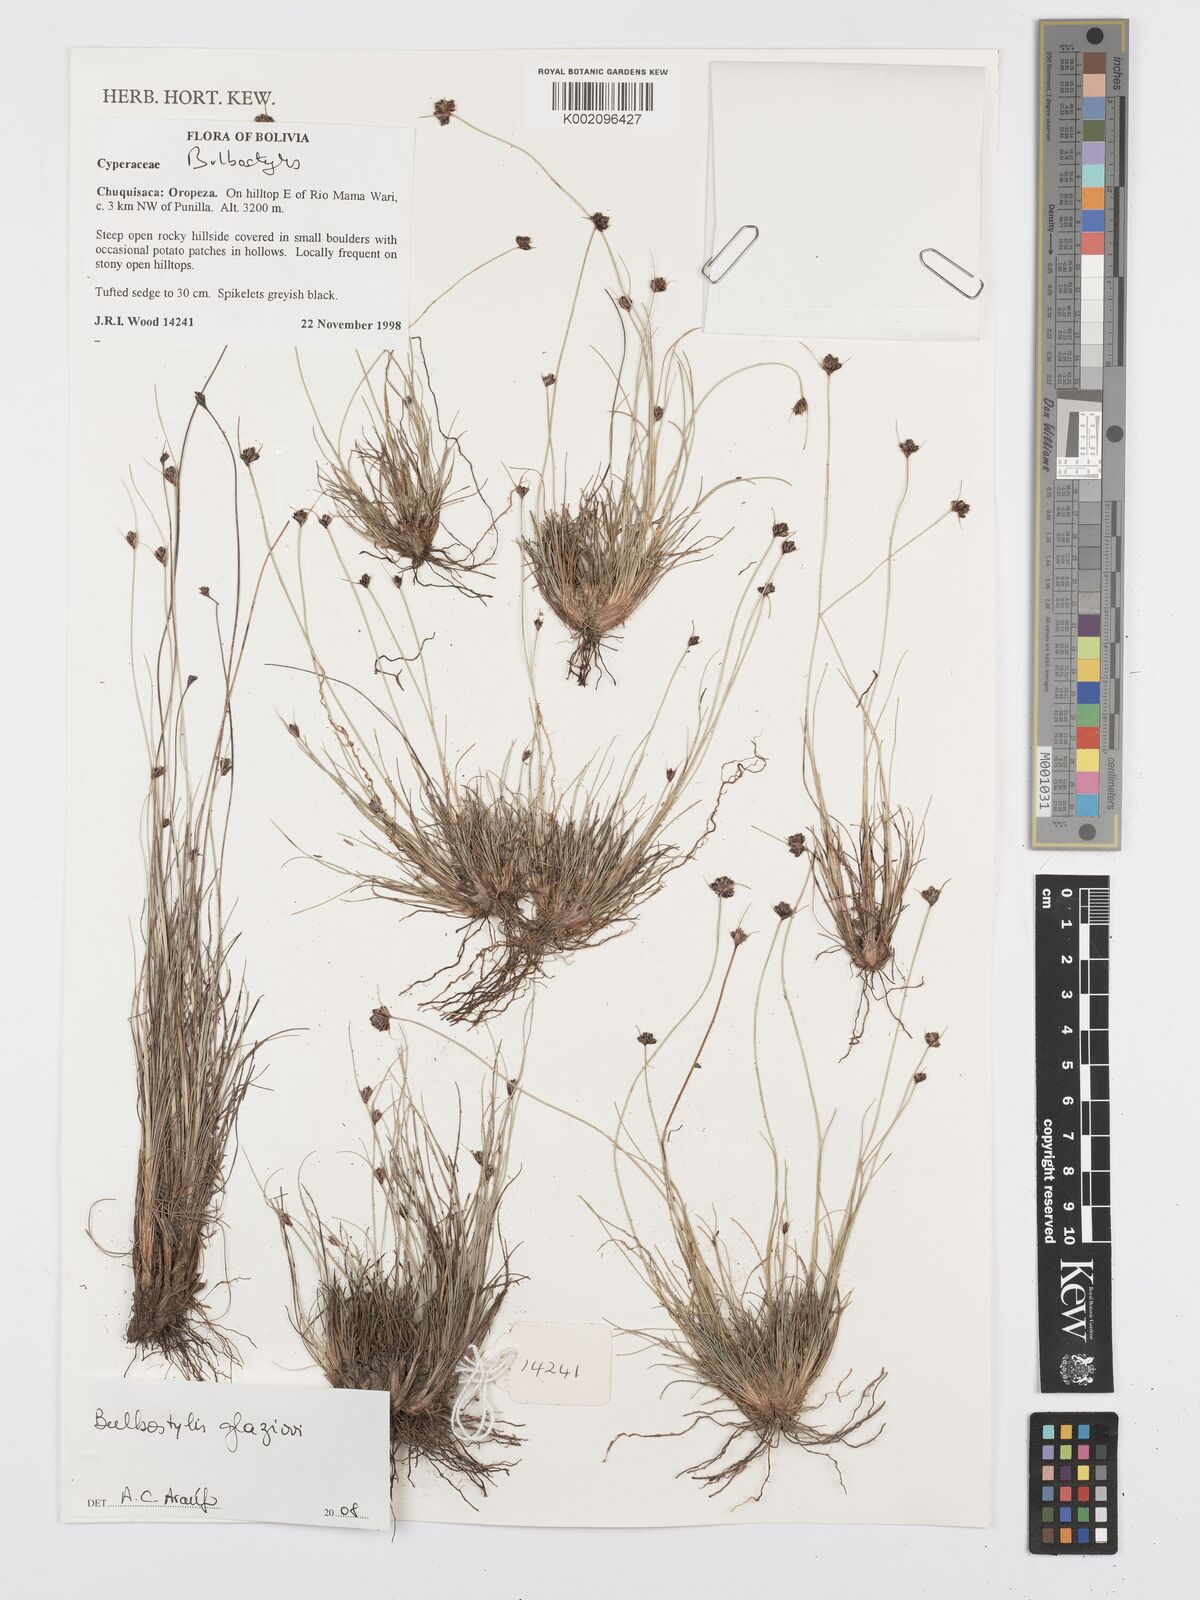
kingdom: Plantae
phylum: Tracheophyta
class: Liliopsida
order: Poales
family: Cyperaceae
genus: Bulbostylis
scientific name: Bulbostylis juncoides
